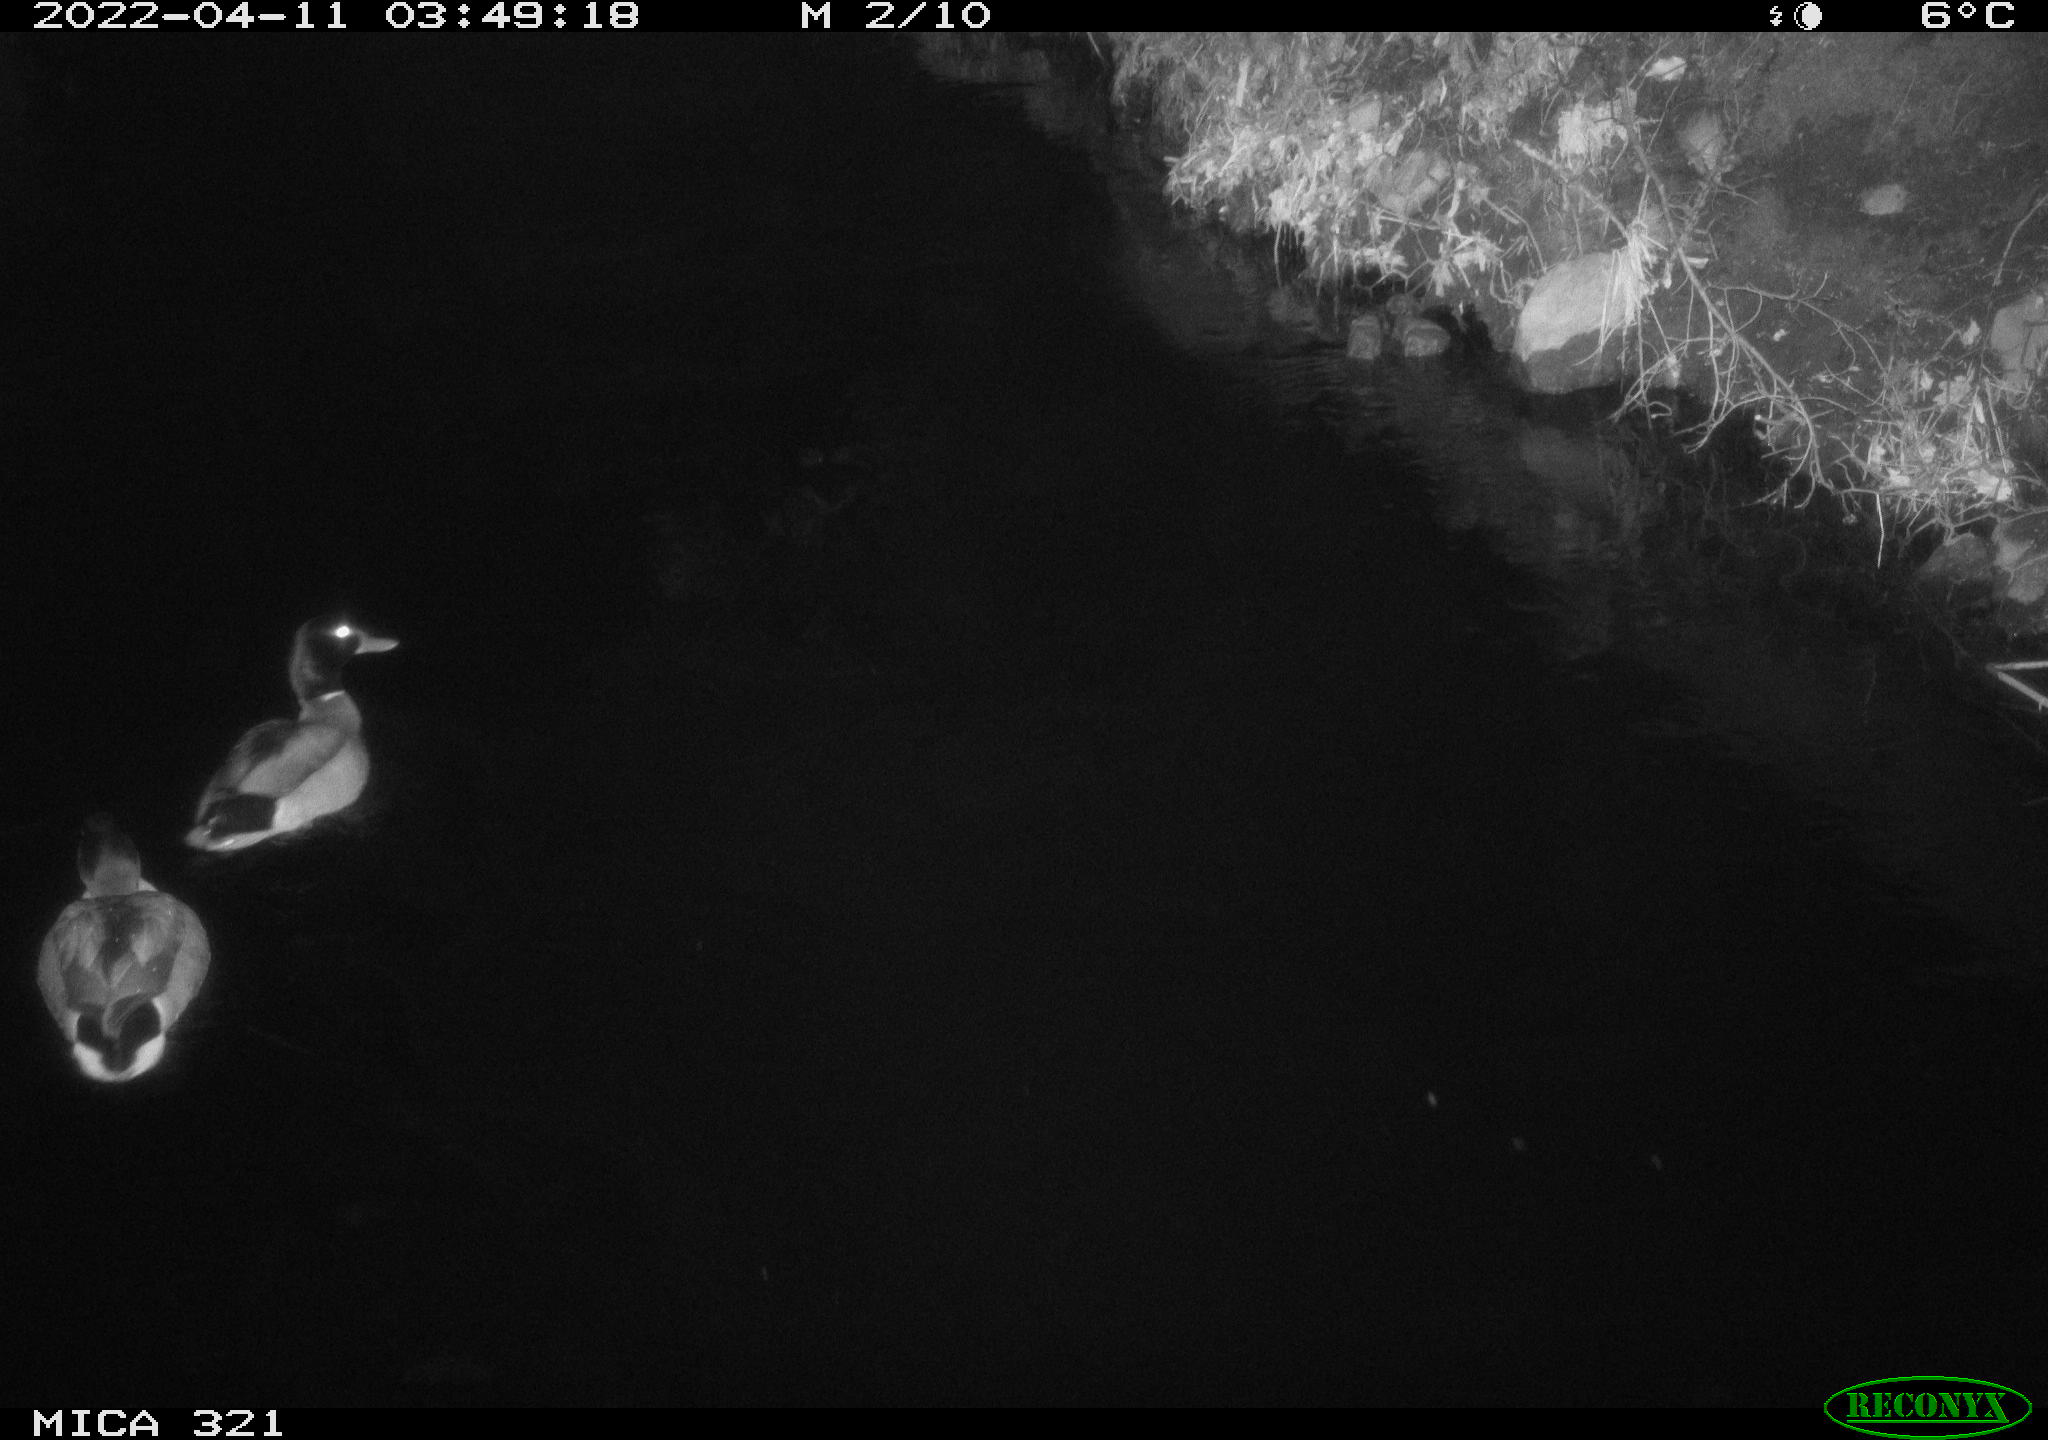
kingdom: Animalia
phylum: Chordata
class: Aves
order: Anseriformes
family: Anatidae
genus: Anas
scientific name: Anas platyrhynchos
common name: Mallard
